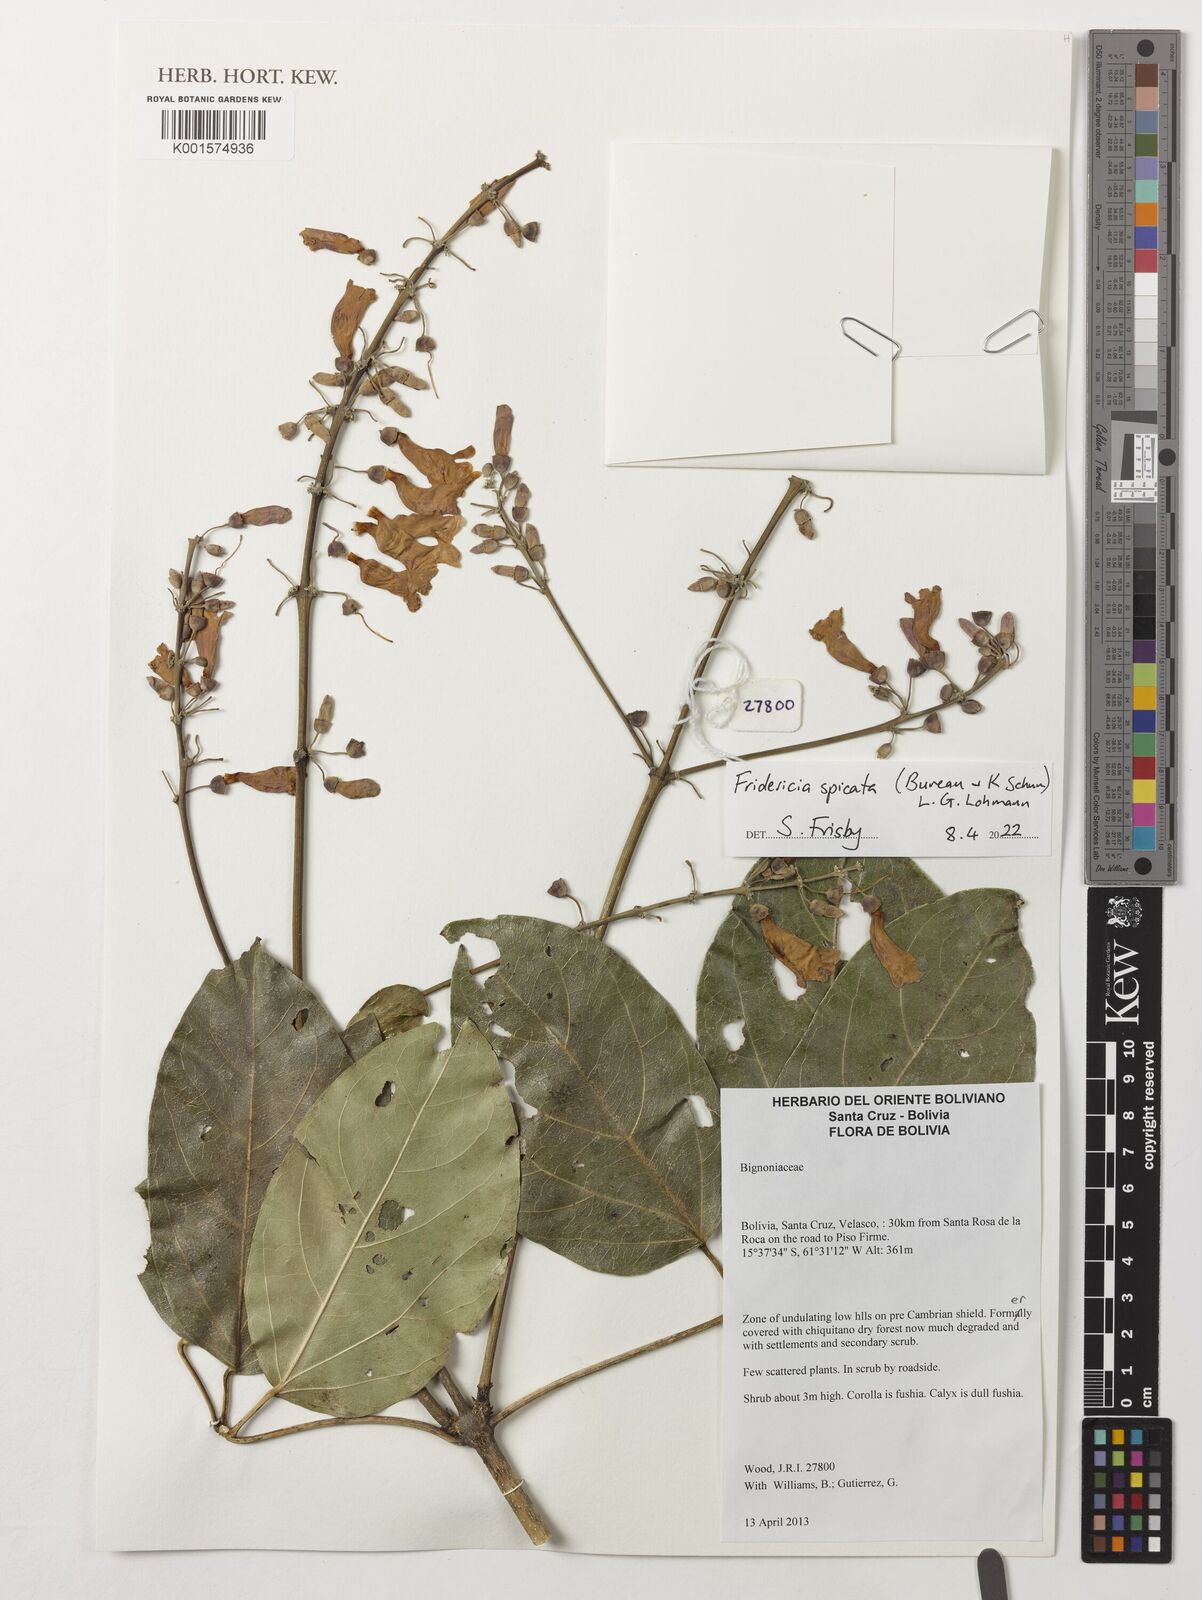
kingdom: Plantae
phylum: Tracheophyta
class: Magnoliopsida
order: Lamiales
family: Bignoniaceae
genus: Fridericia
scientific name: Fridericia spicata
